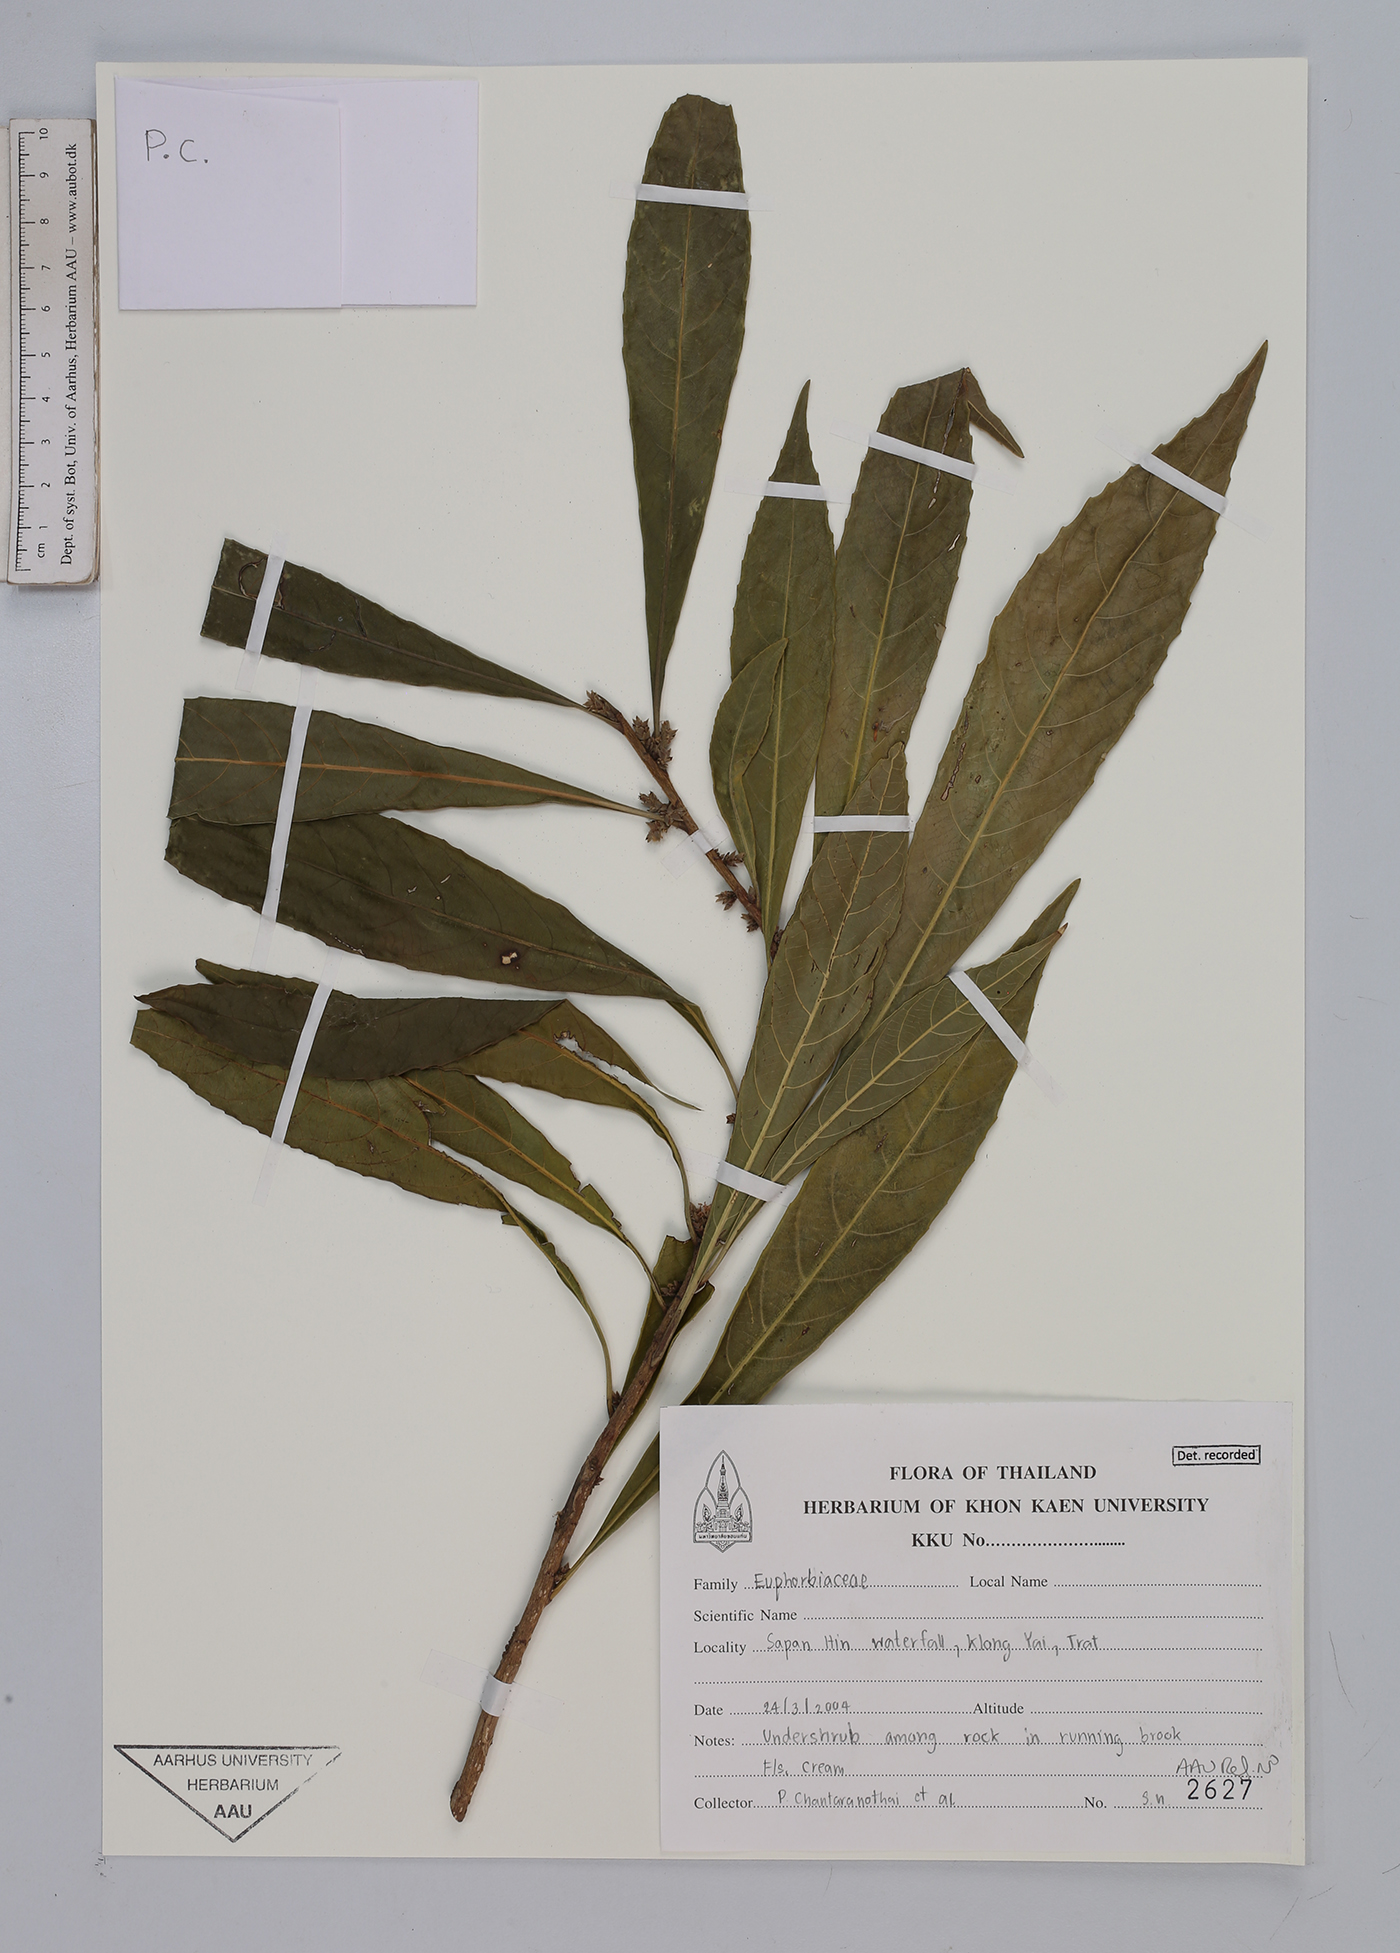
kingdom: Plantae
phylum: Tracheophyta
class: Magnoliopsida
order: Malpighiales
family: Euphorbiaceae
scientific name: Euphorbiaceae
